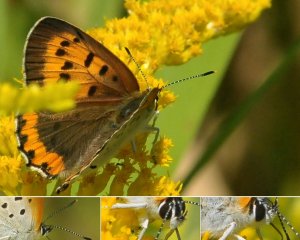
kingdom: Animalia
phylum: Arthropoda
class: Insecta
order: Lepidoptera
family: Sesiidae
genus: Sesia
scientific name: Sesia Lycaena hyllus
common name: Bronze Copper
